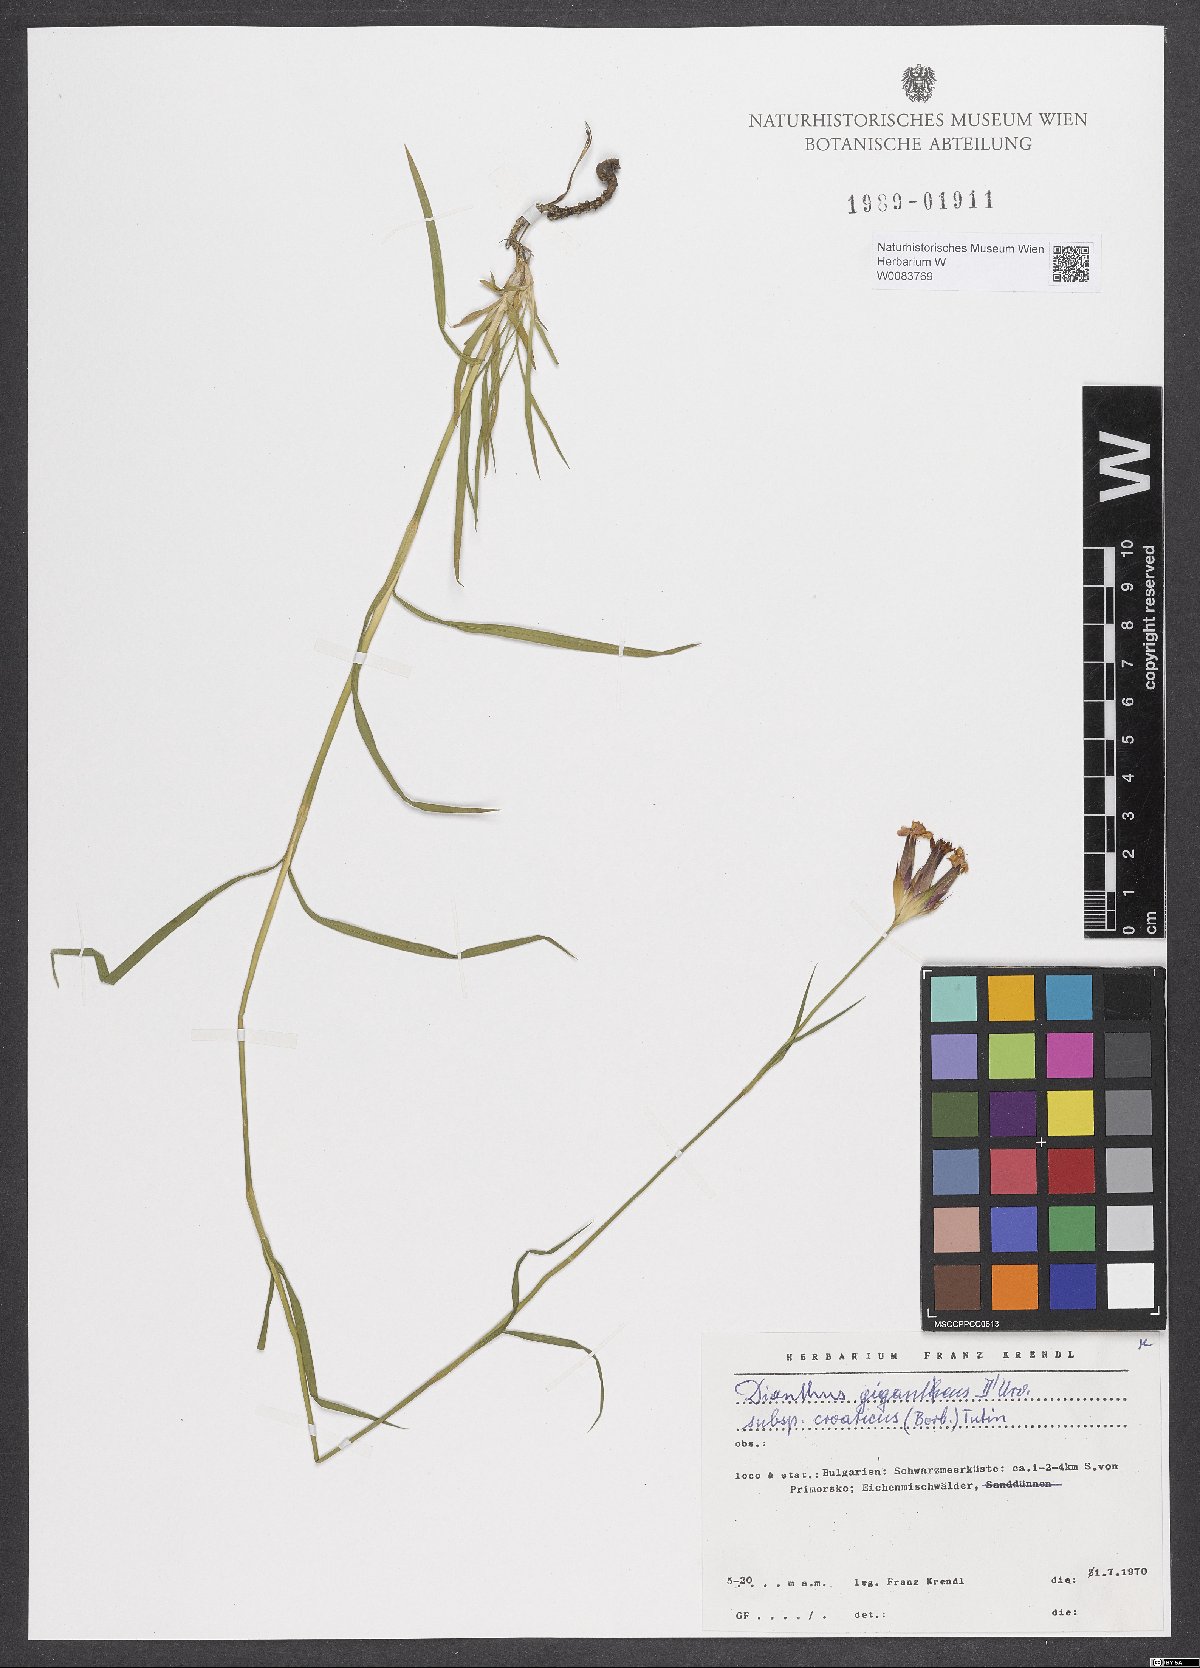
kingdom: Plantae
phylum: Tracheophyta
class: Magnoliopsida
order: Caryophyllales
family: Caryophyllaceae
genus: Dianthus
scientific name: Dianthus giganteus
